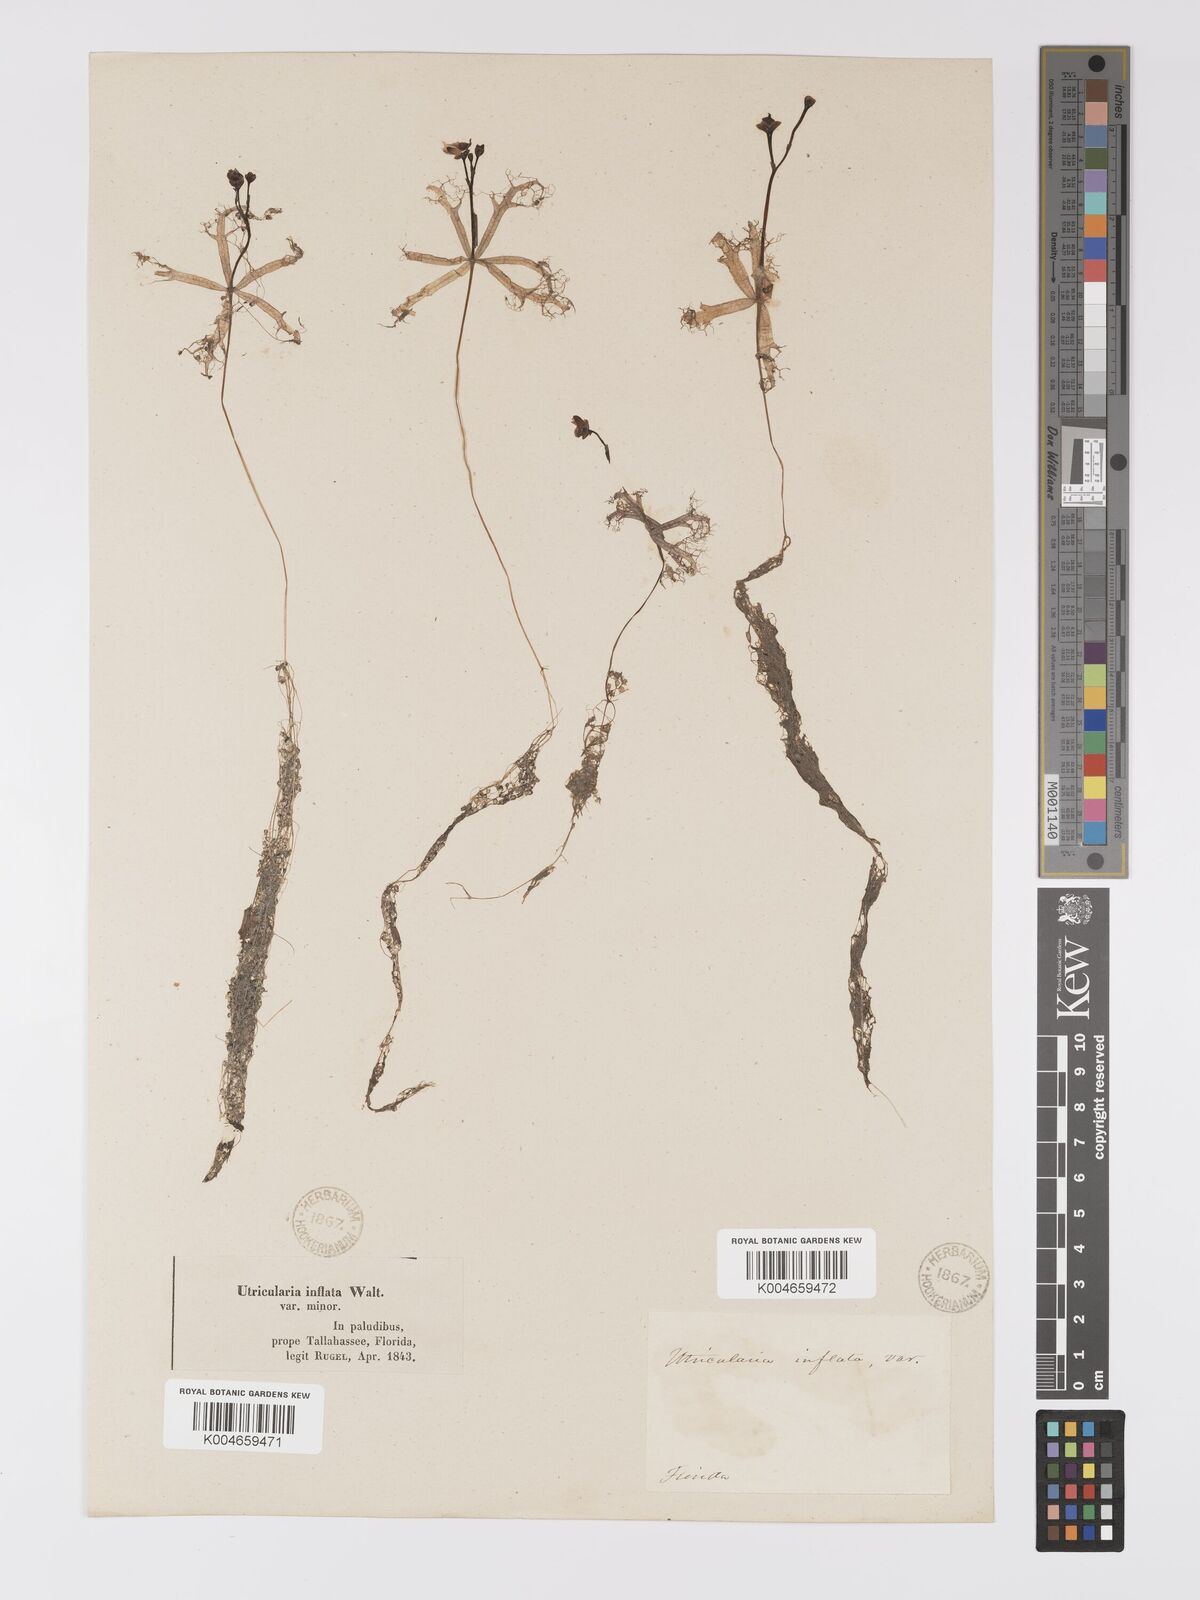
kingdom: Plantae
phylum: Tracheophyta
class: Magnoliopsida
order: Lamiales
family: Lentibulariaceae
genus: Utricularia
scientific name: Utricularia radiata
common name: Floating bladderwort
